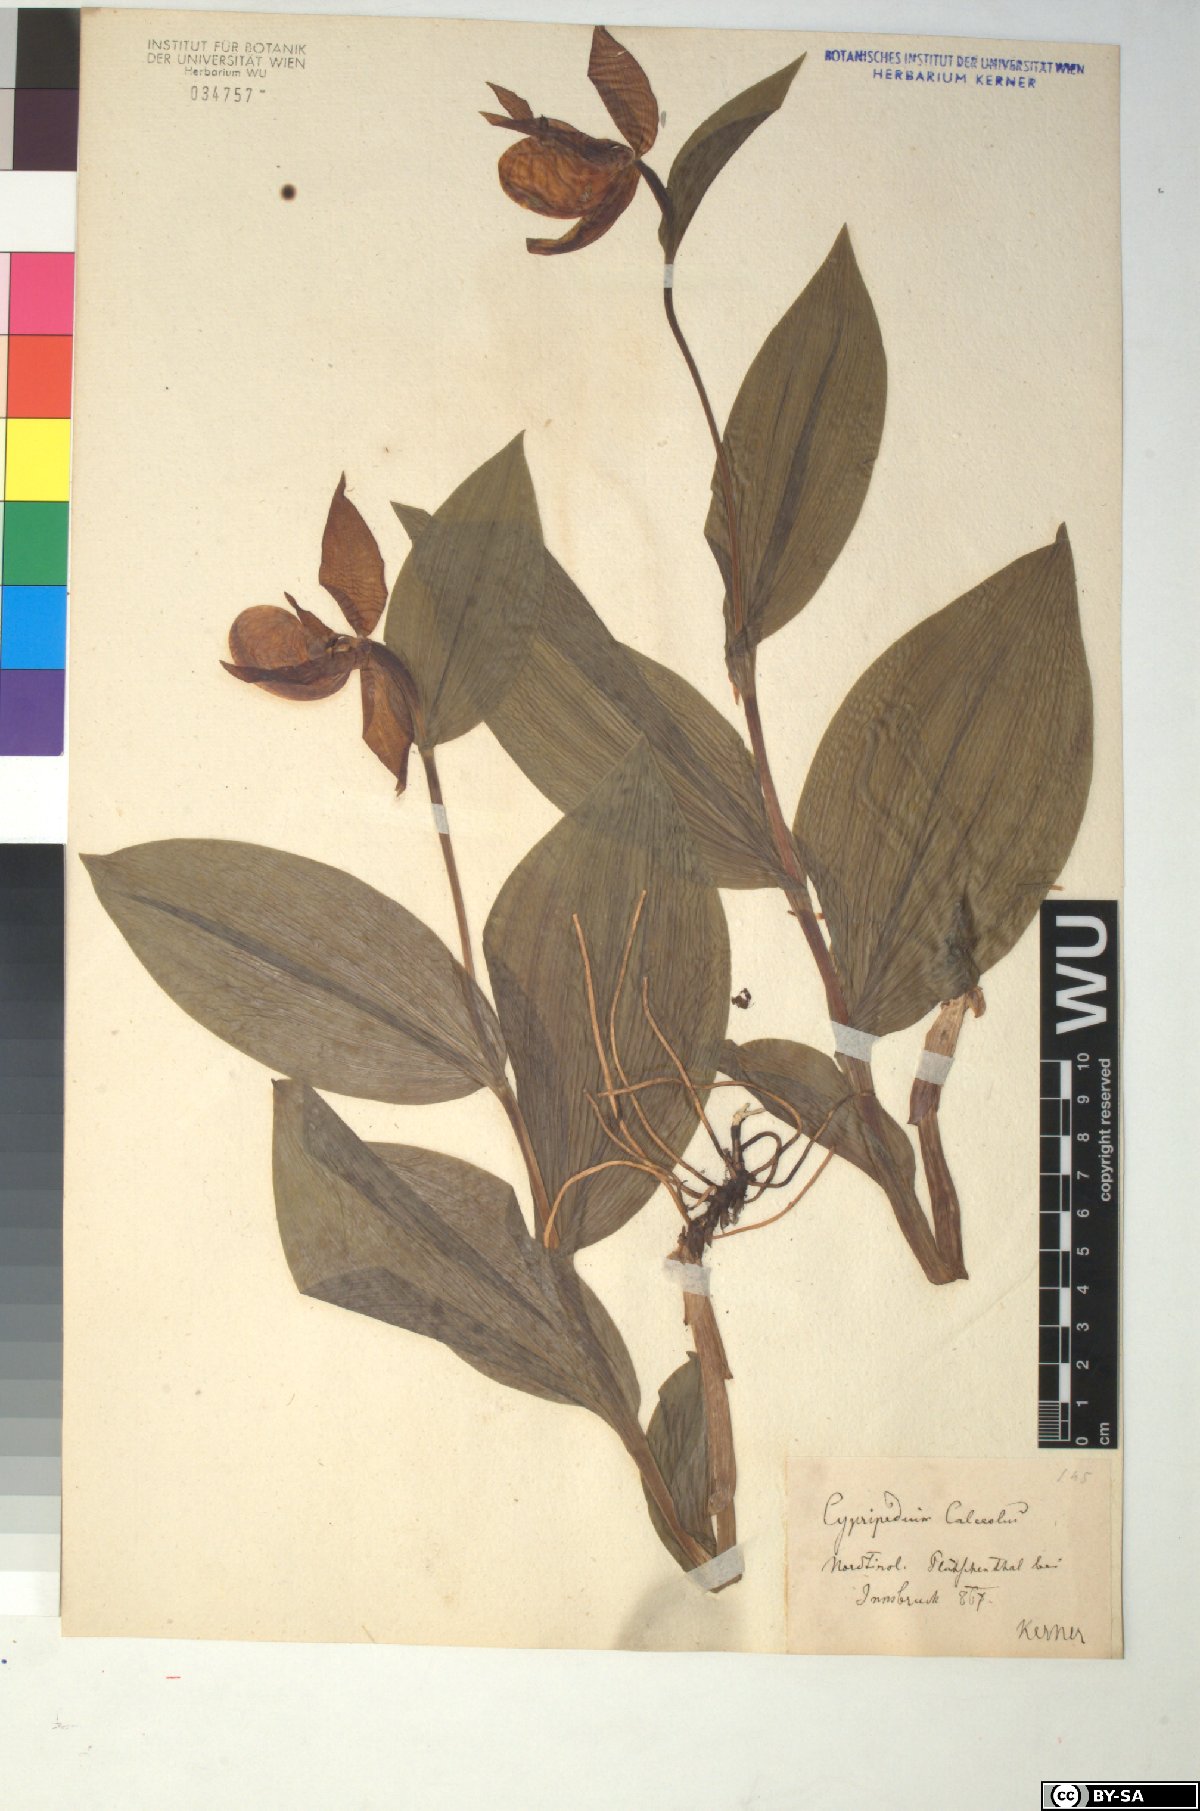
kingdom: Plantae
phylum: Tracheophyta
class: Liliopsida
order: Asparagales
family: Orchidaceae
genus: Cypripedium
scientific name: Cypripedium calceolus
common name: Lady's-slipper
